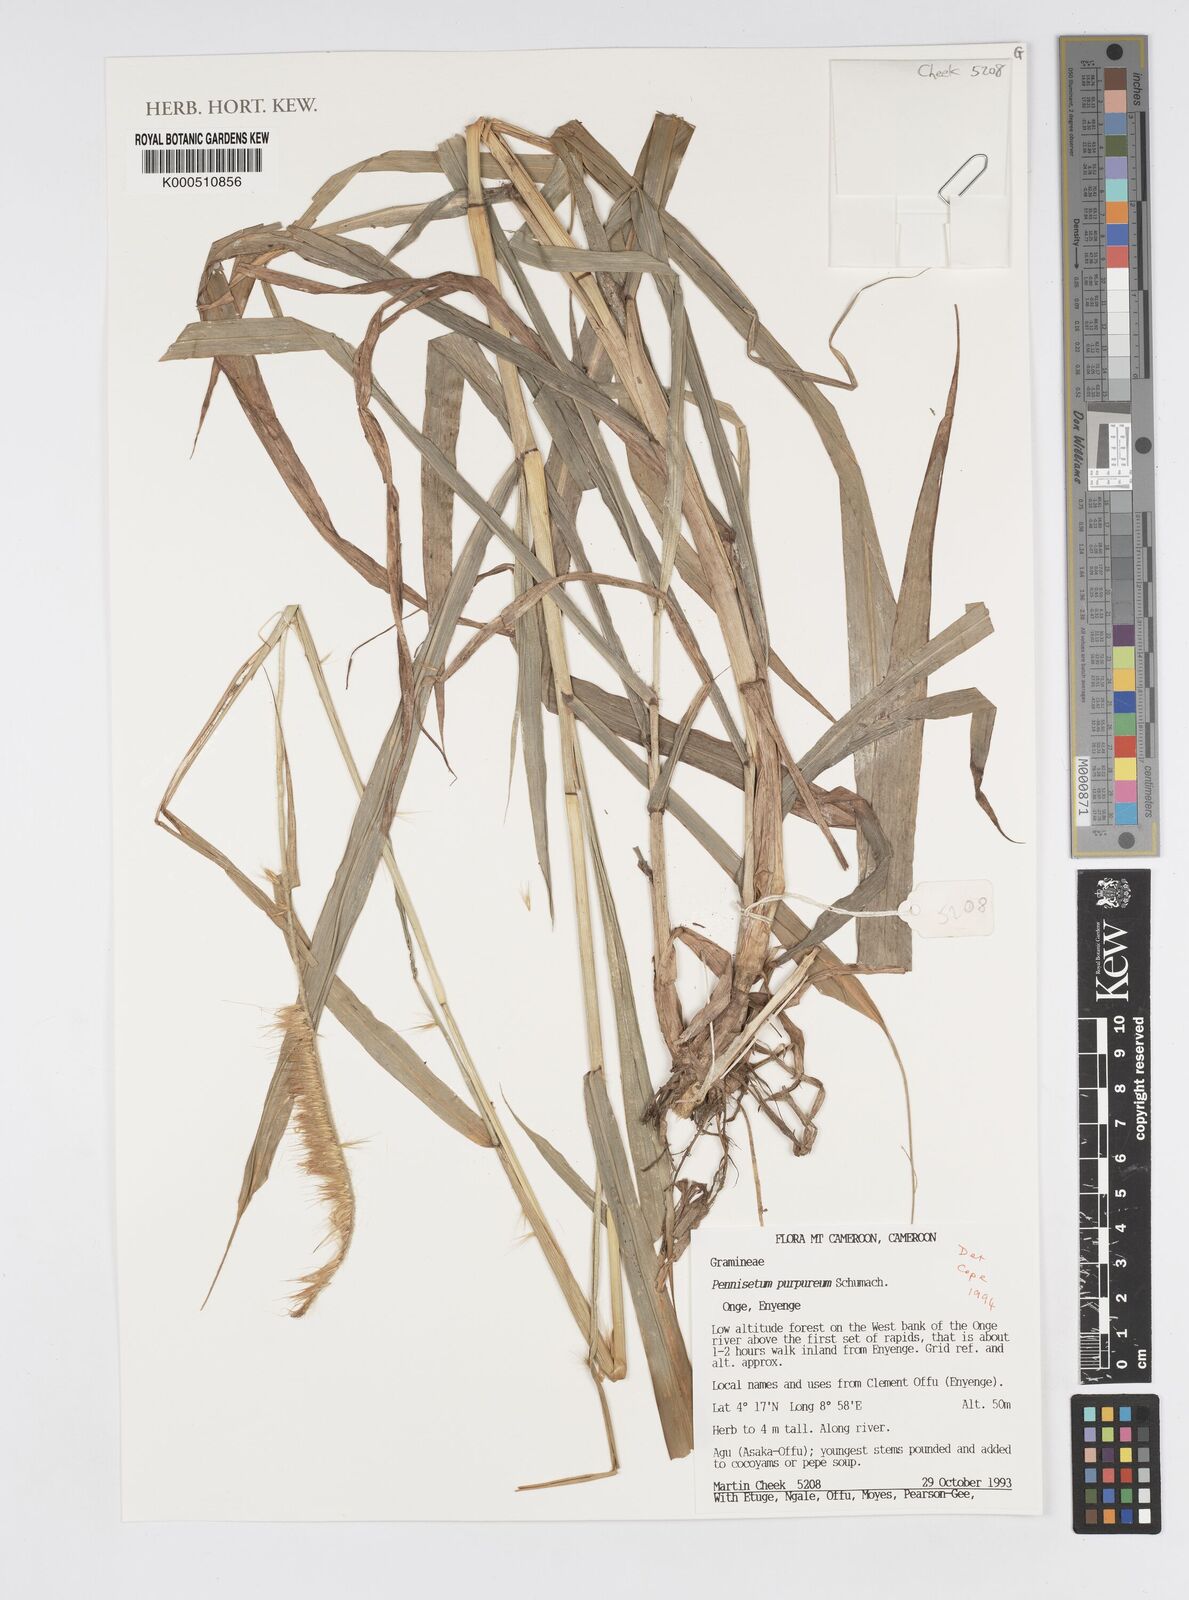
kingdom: Plantae
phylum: Tracheophyta
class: Liliopsida
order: Poales
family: Poaceae
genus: Cenchrus
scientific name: Cenchrus purpureus
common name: Elephant grass
